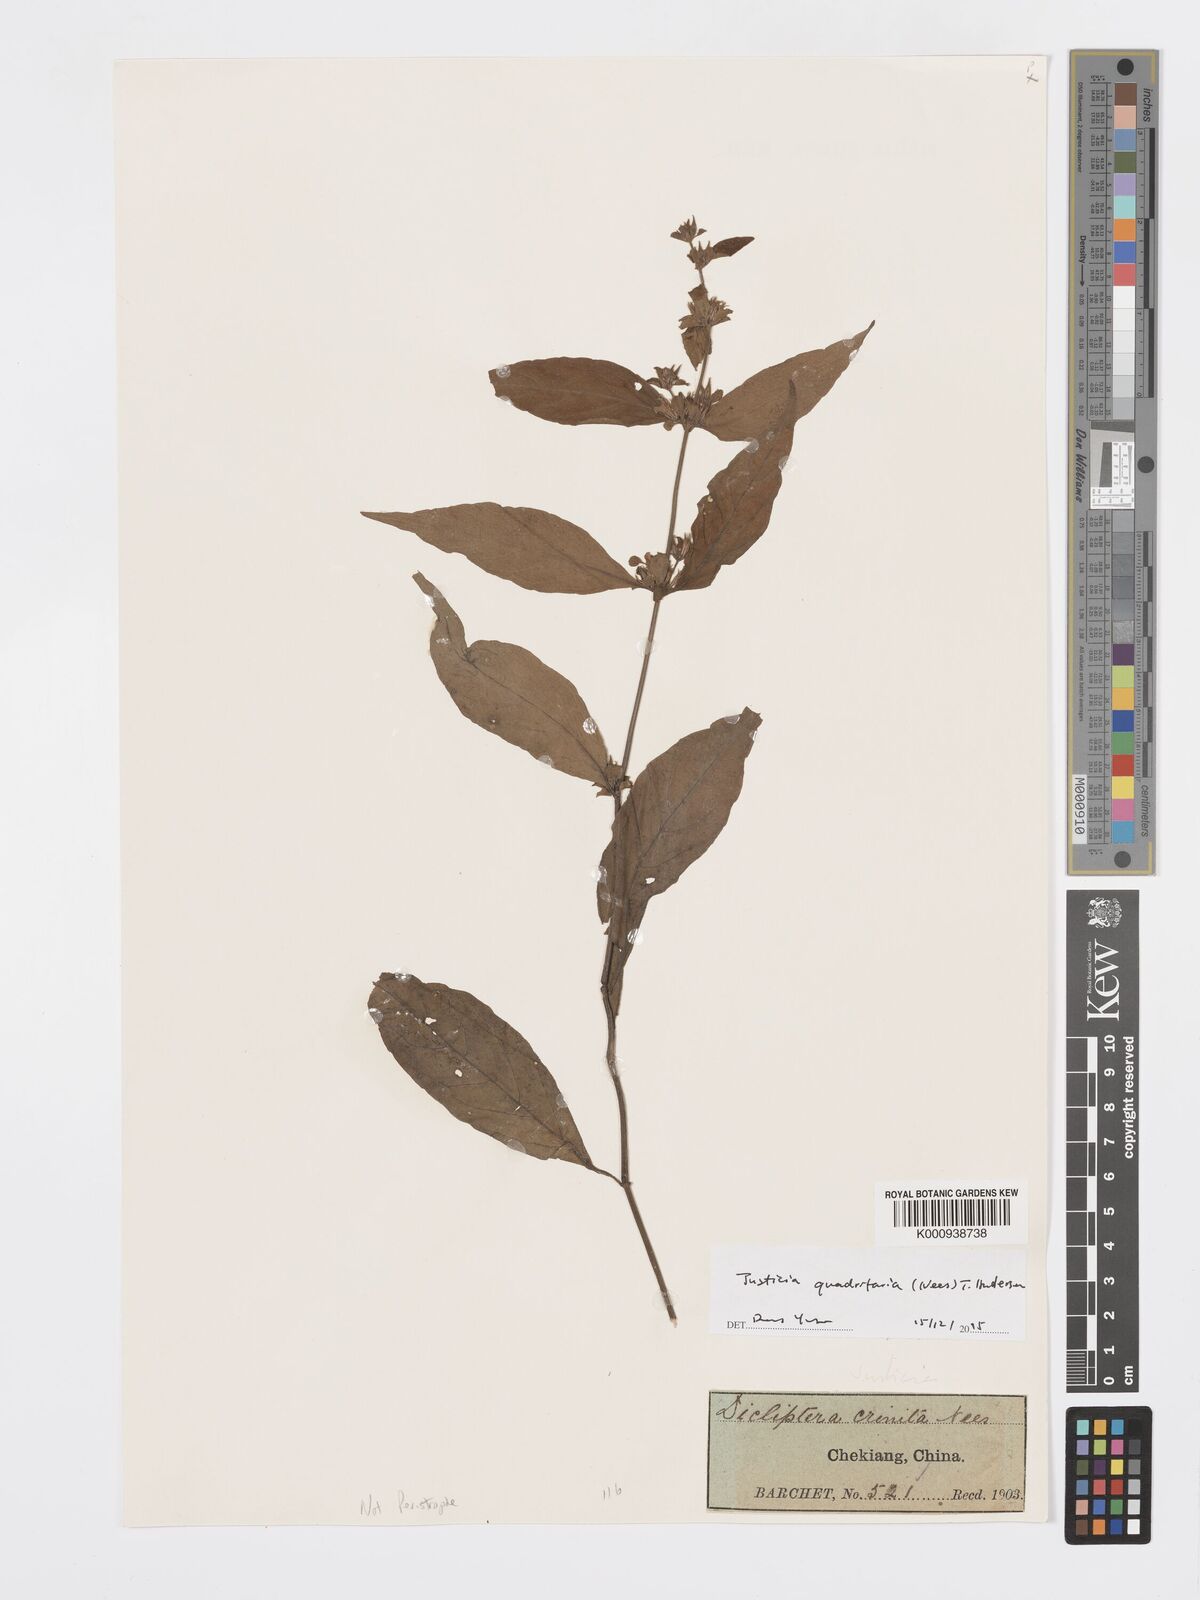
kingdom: Plantae
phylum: Tracheophyta
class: Magnoliopsida
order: Lamiales
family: Acanthaceae
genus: Justicia
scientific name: Justicia quadrifaria
